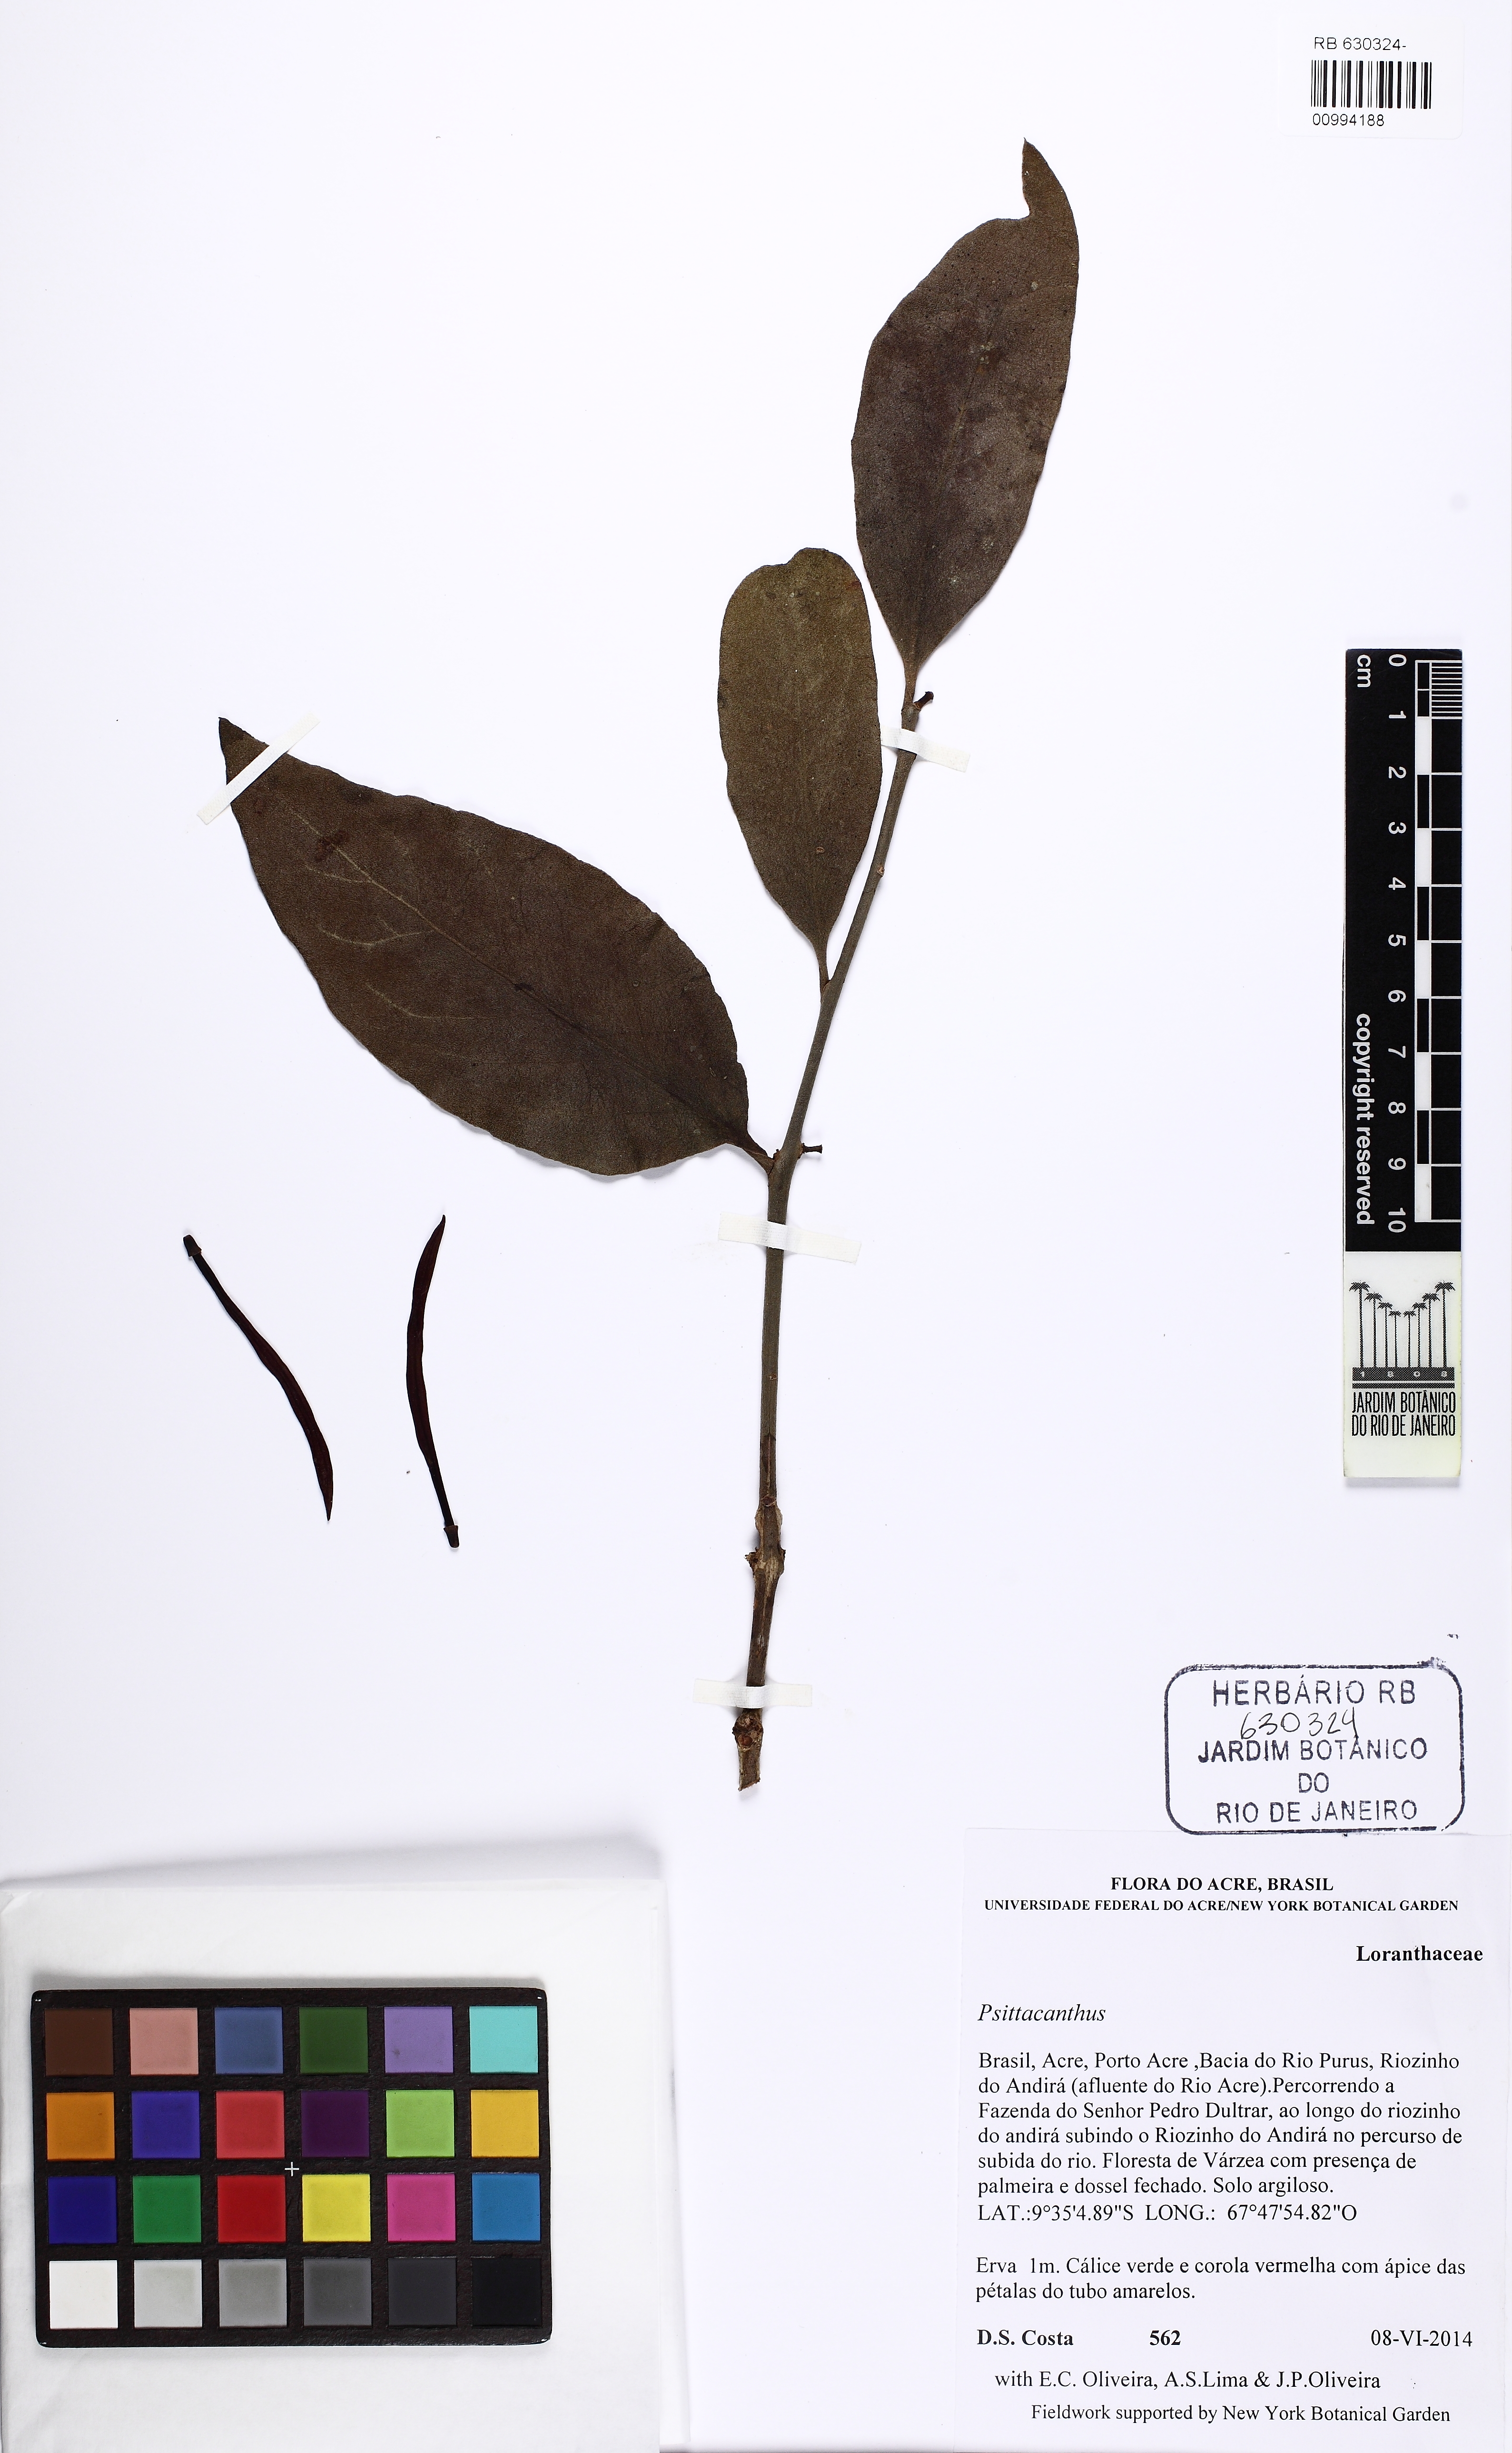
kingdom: Plantae
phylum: Tracheophyta
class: Magnoliopsida
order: Santalales
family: Loranthaceae
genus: Psittacanthus
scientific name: Psittacanthus
